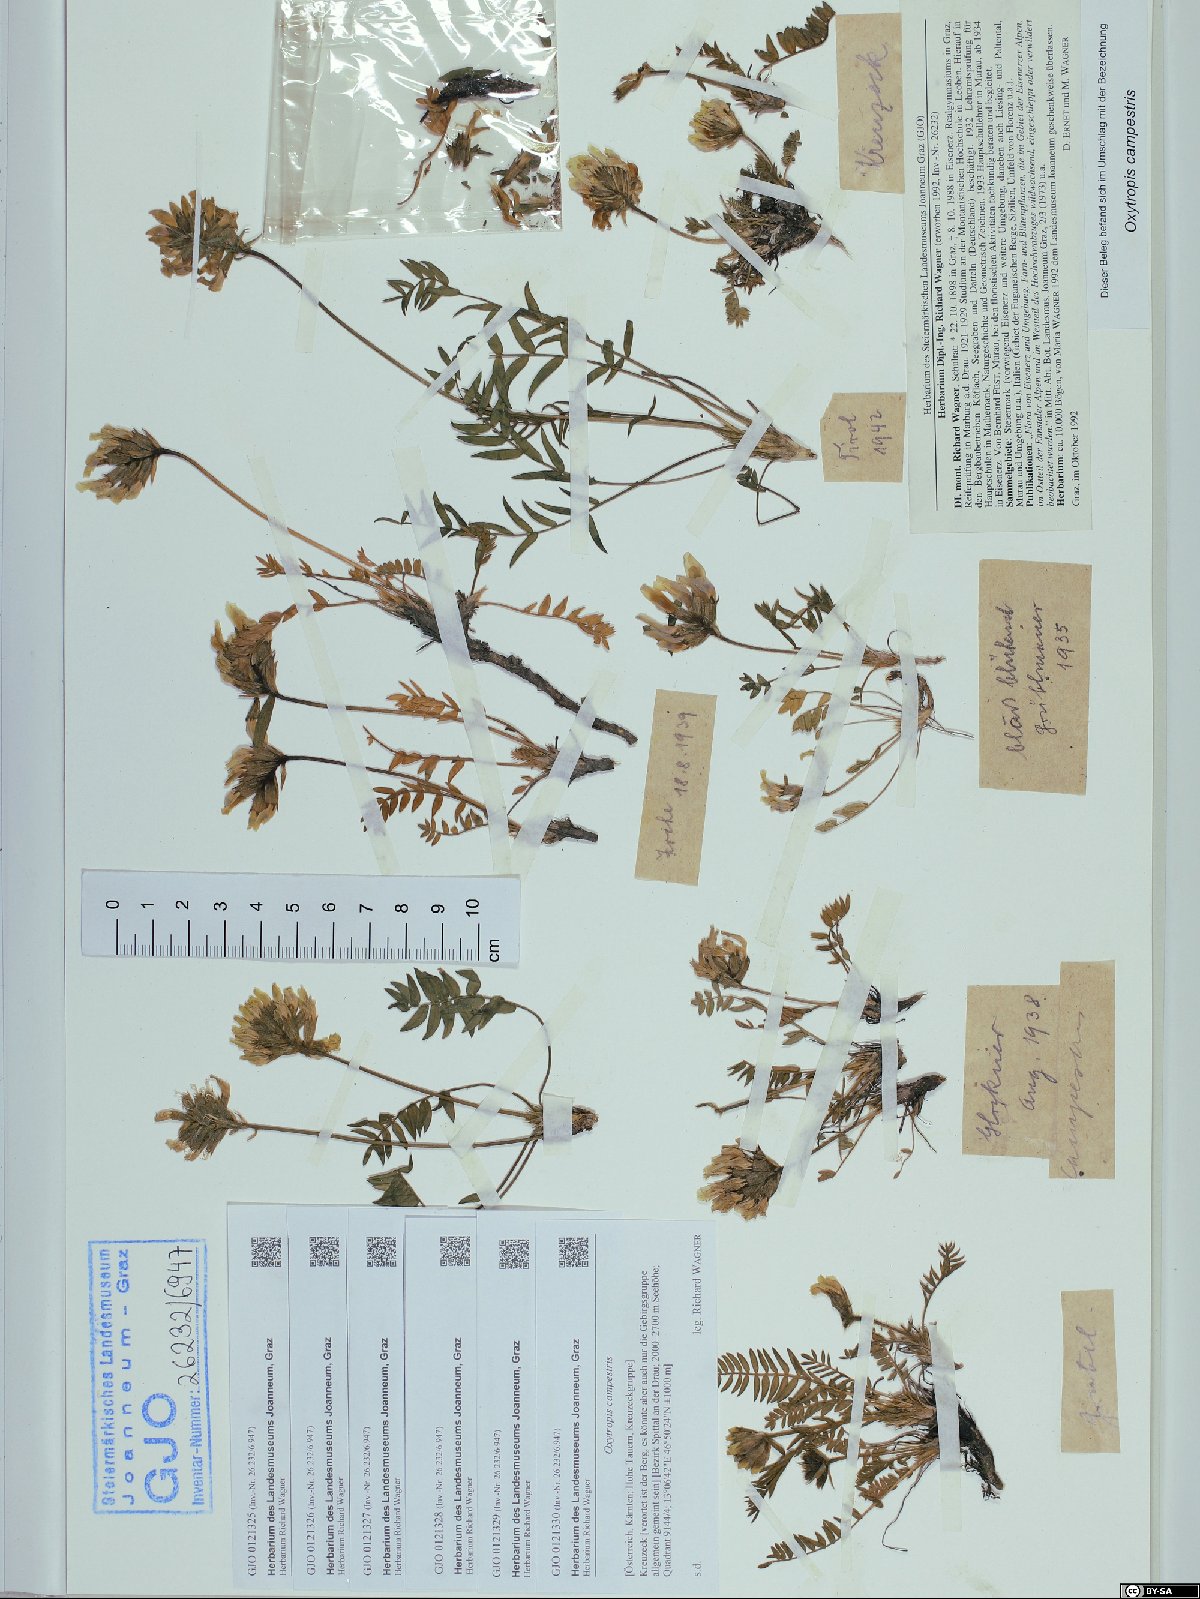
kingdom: Plantae
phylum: Tracheophyta
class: Magnoliopsida
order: Fabales
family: Fabaceae
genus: Oxytropis
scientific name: Oxytropis campestris
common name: Field locoweed
